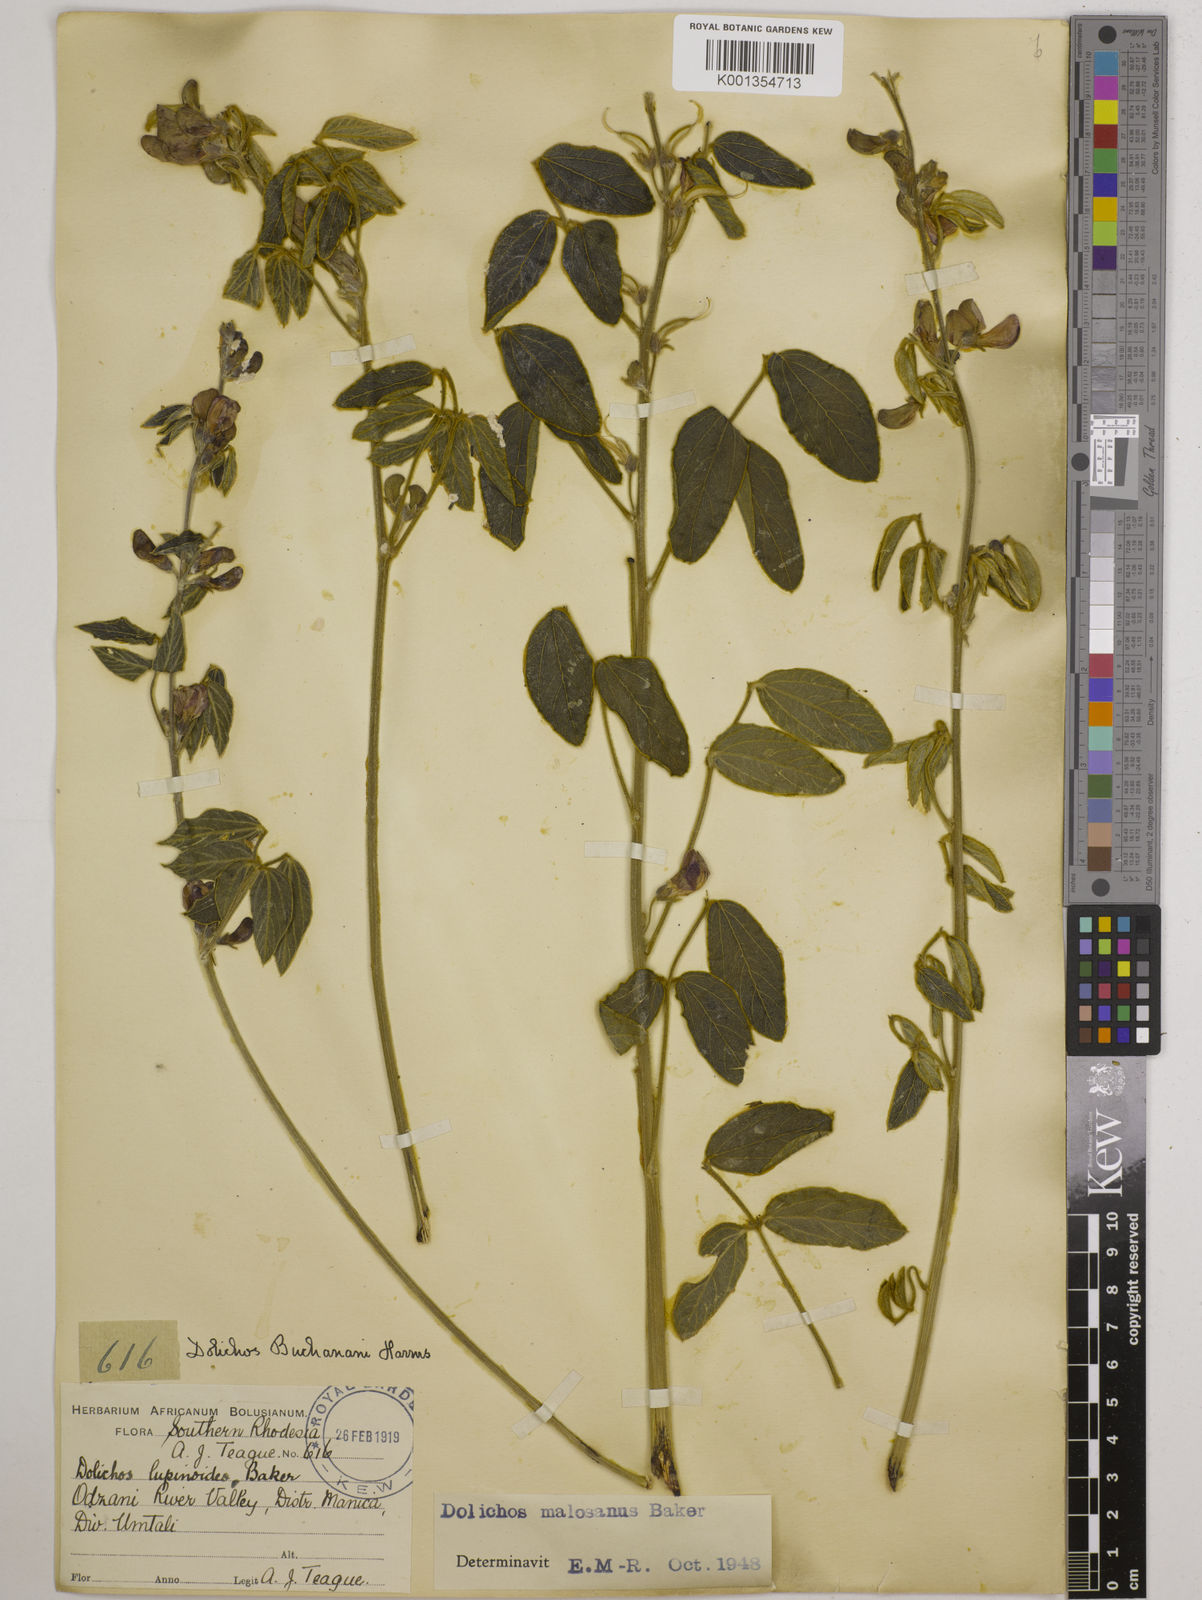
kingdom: Plantae
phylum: Tracheophyta
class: Magnoliopsida
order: Fabales
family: Fabaceae
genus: Dolichos
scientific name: Dolichos kilimandscharicus
